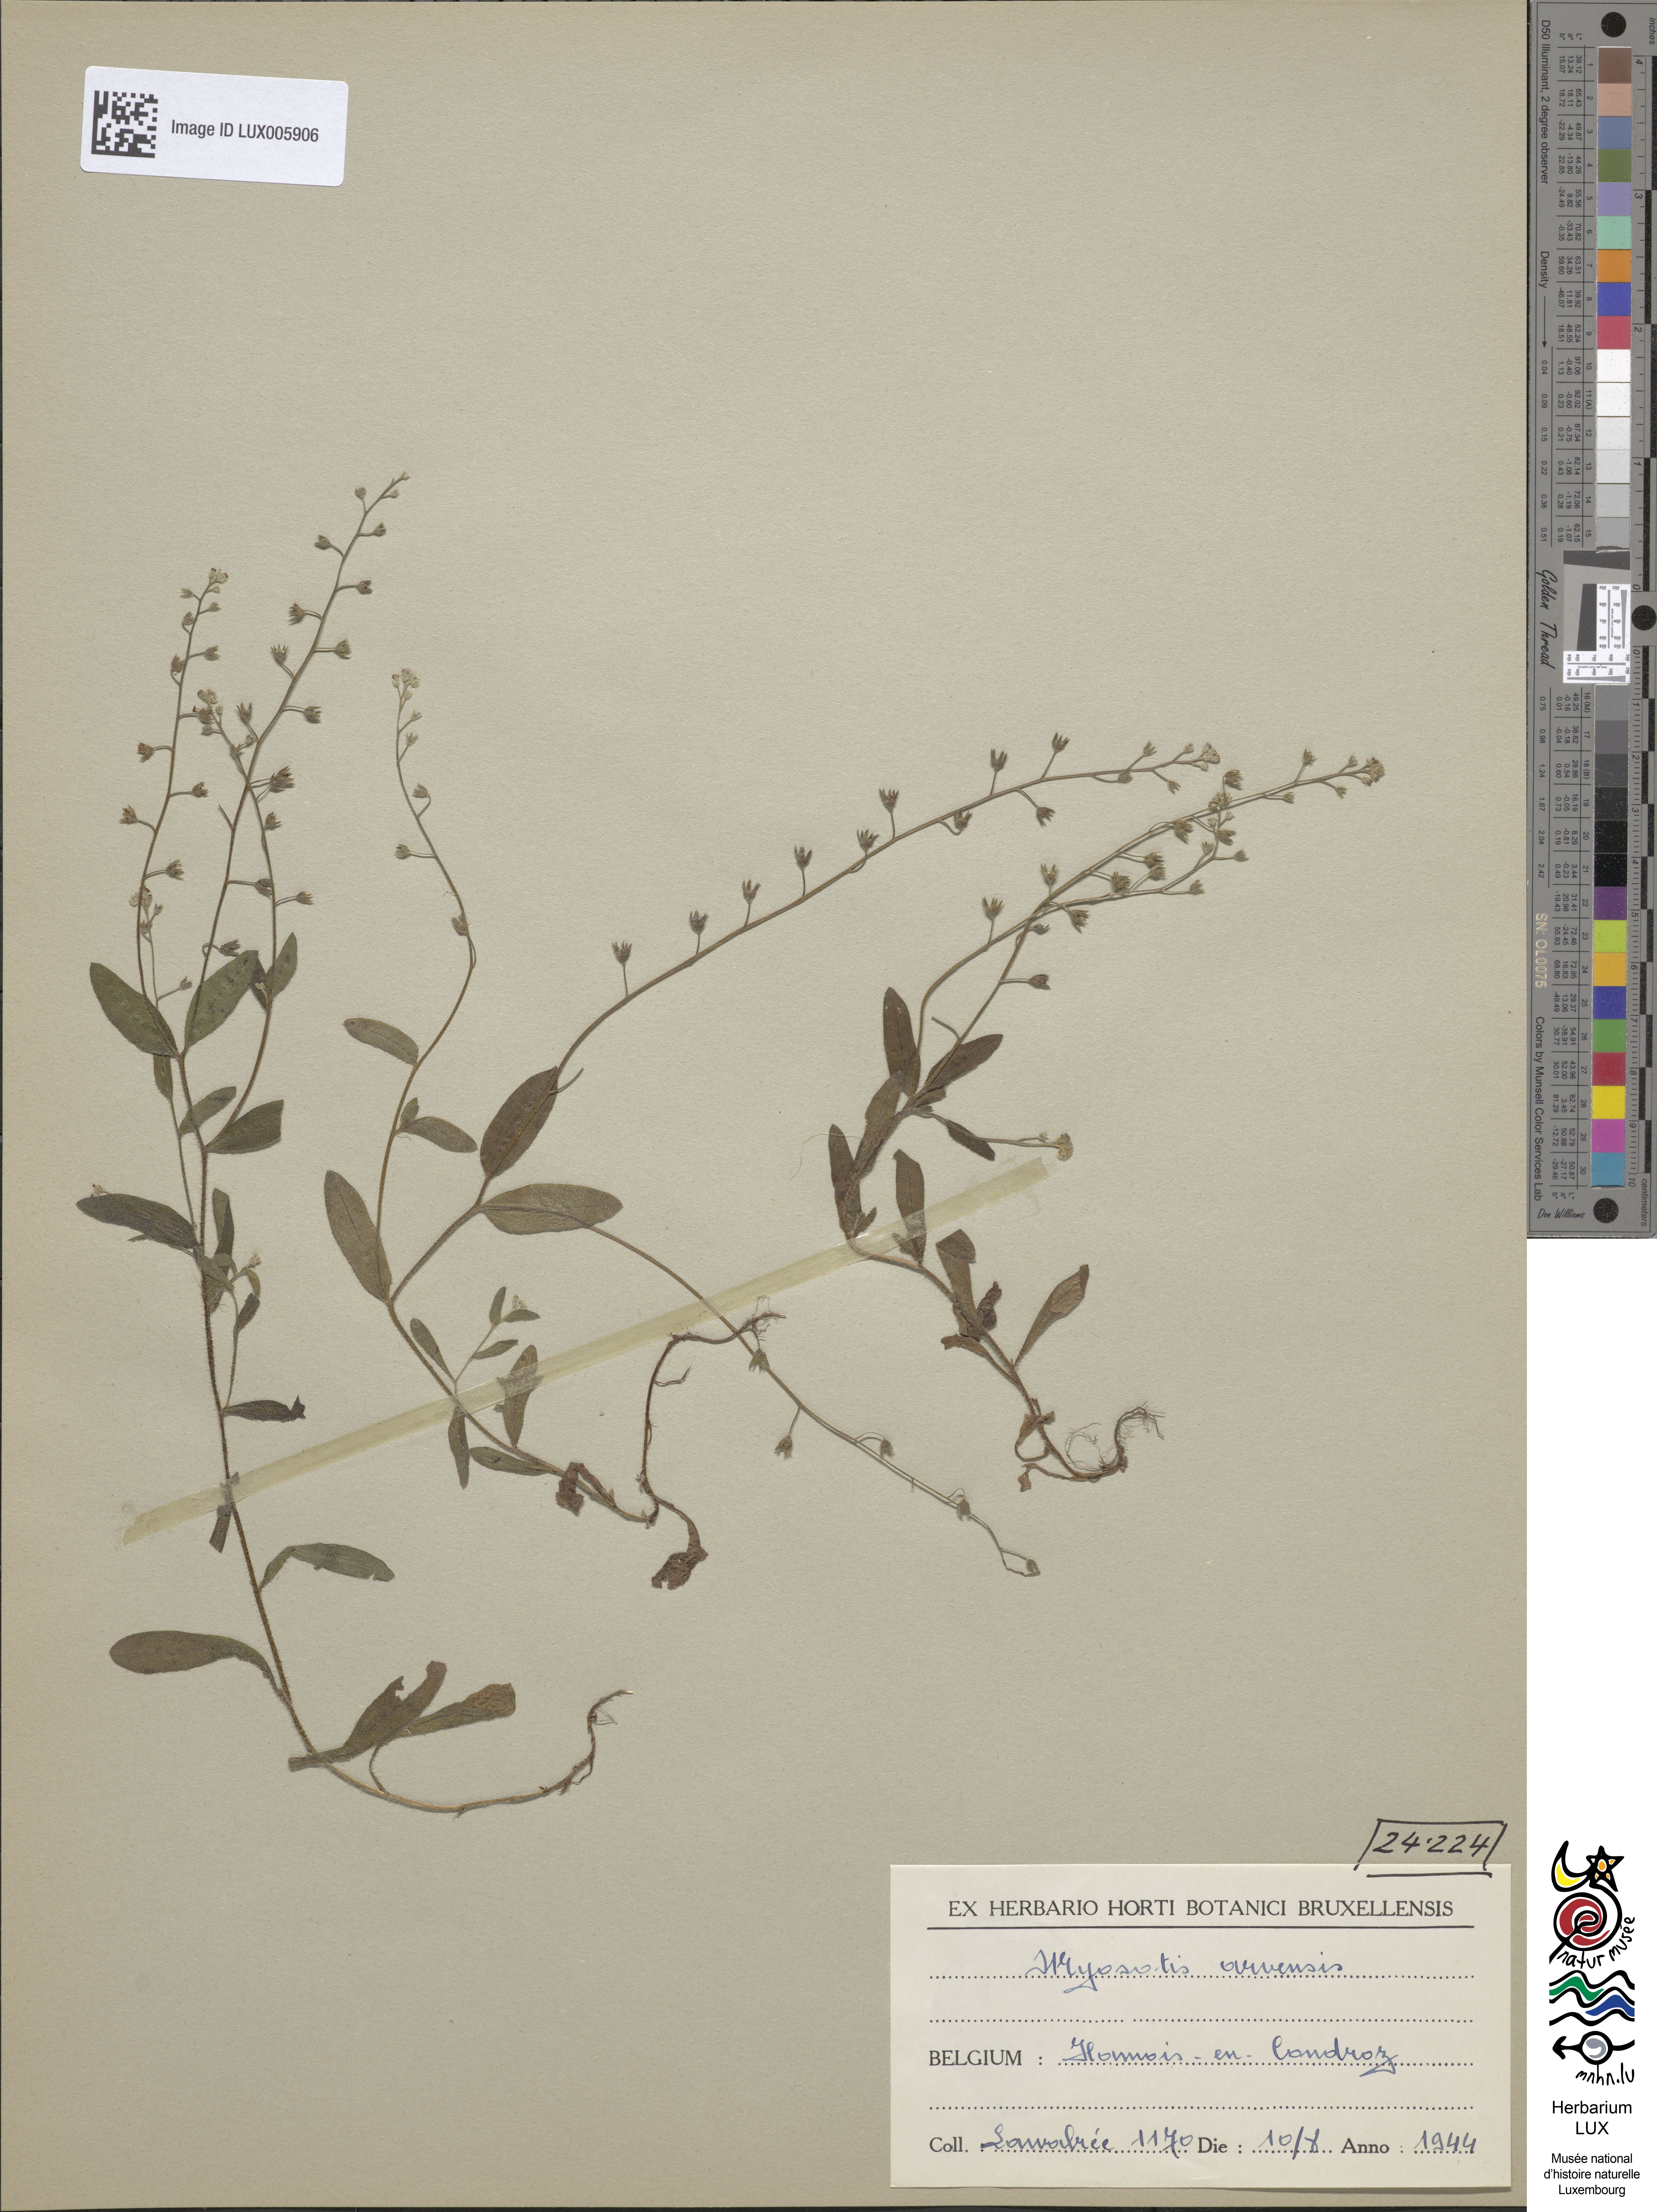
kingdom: Plantae
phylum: Tracheophyta
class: Magnoliopsida
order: Boraginales
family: Boraginaceae
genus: Myosotis
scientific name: Myosotis arvensis
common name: Field forget-me-not
